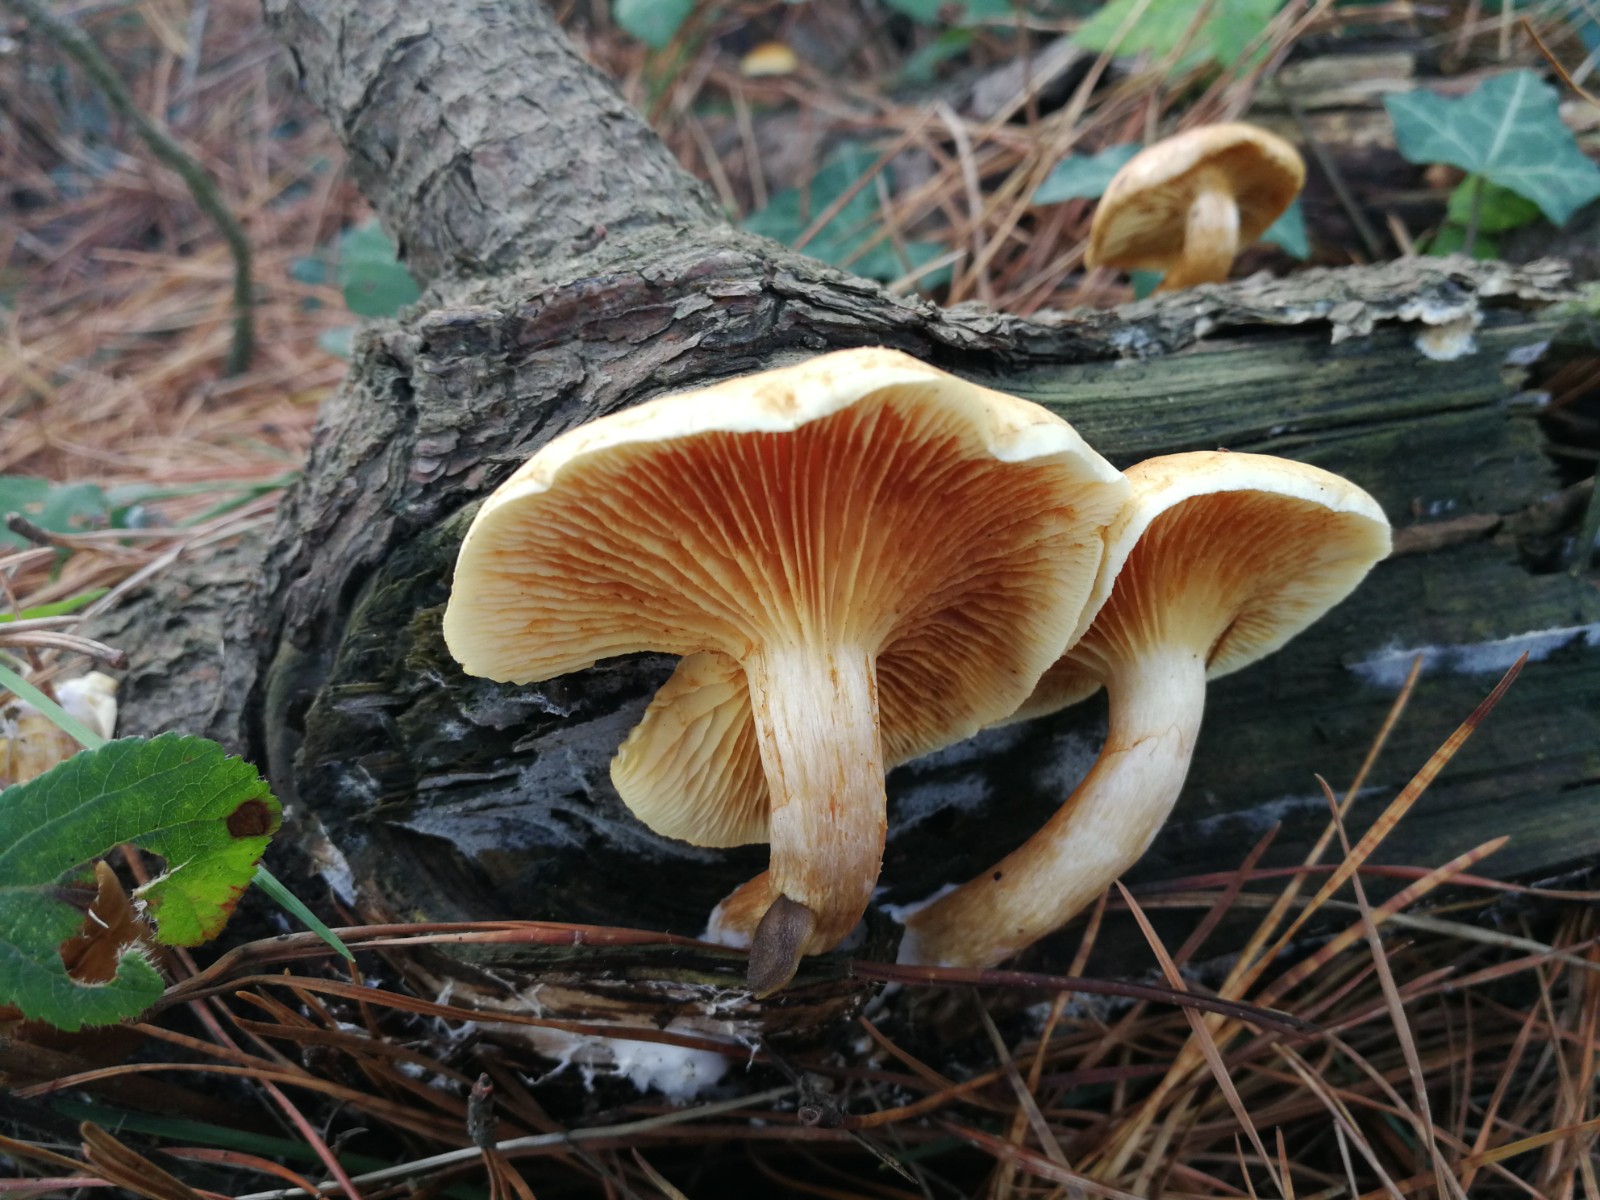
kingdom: Fungi
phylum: Basidiomycota
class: Agaricomycetes
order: Agaricales
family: Hymenogastraceae
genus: Gymnopilus
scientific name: Gymnopilus penetrans
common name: plettet flammehat
